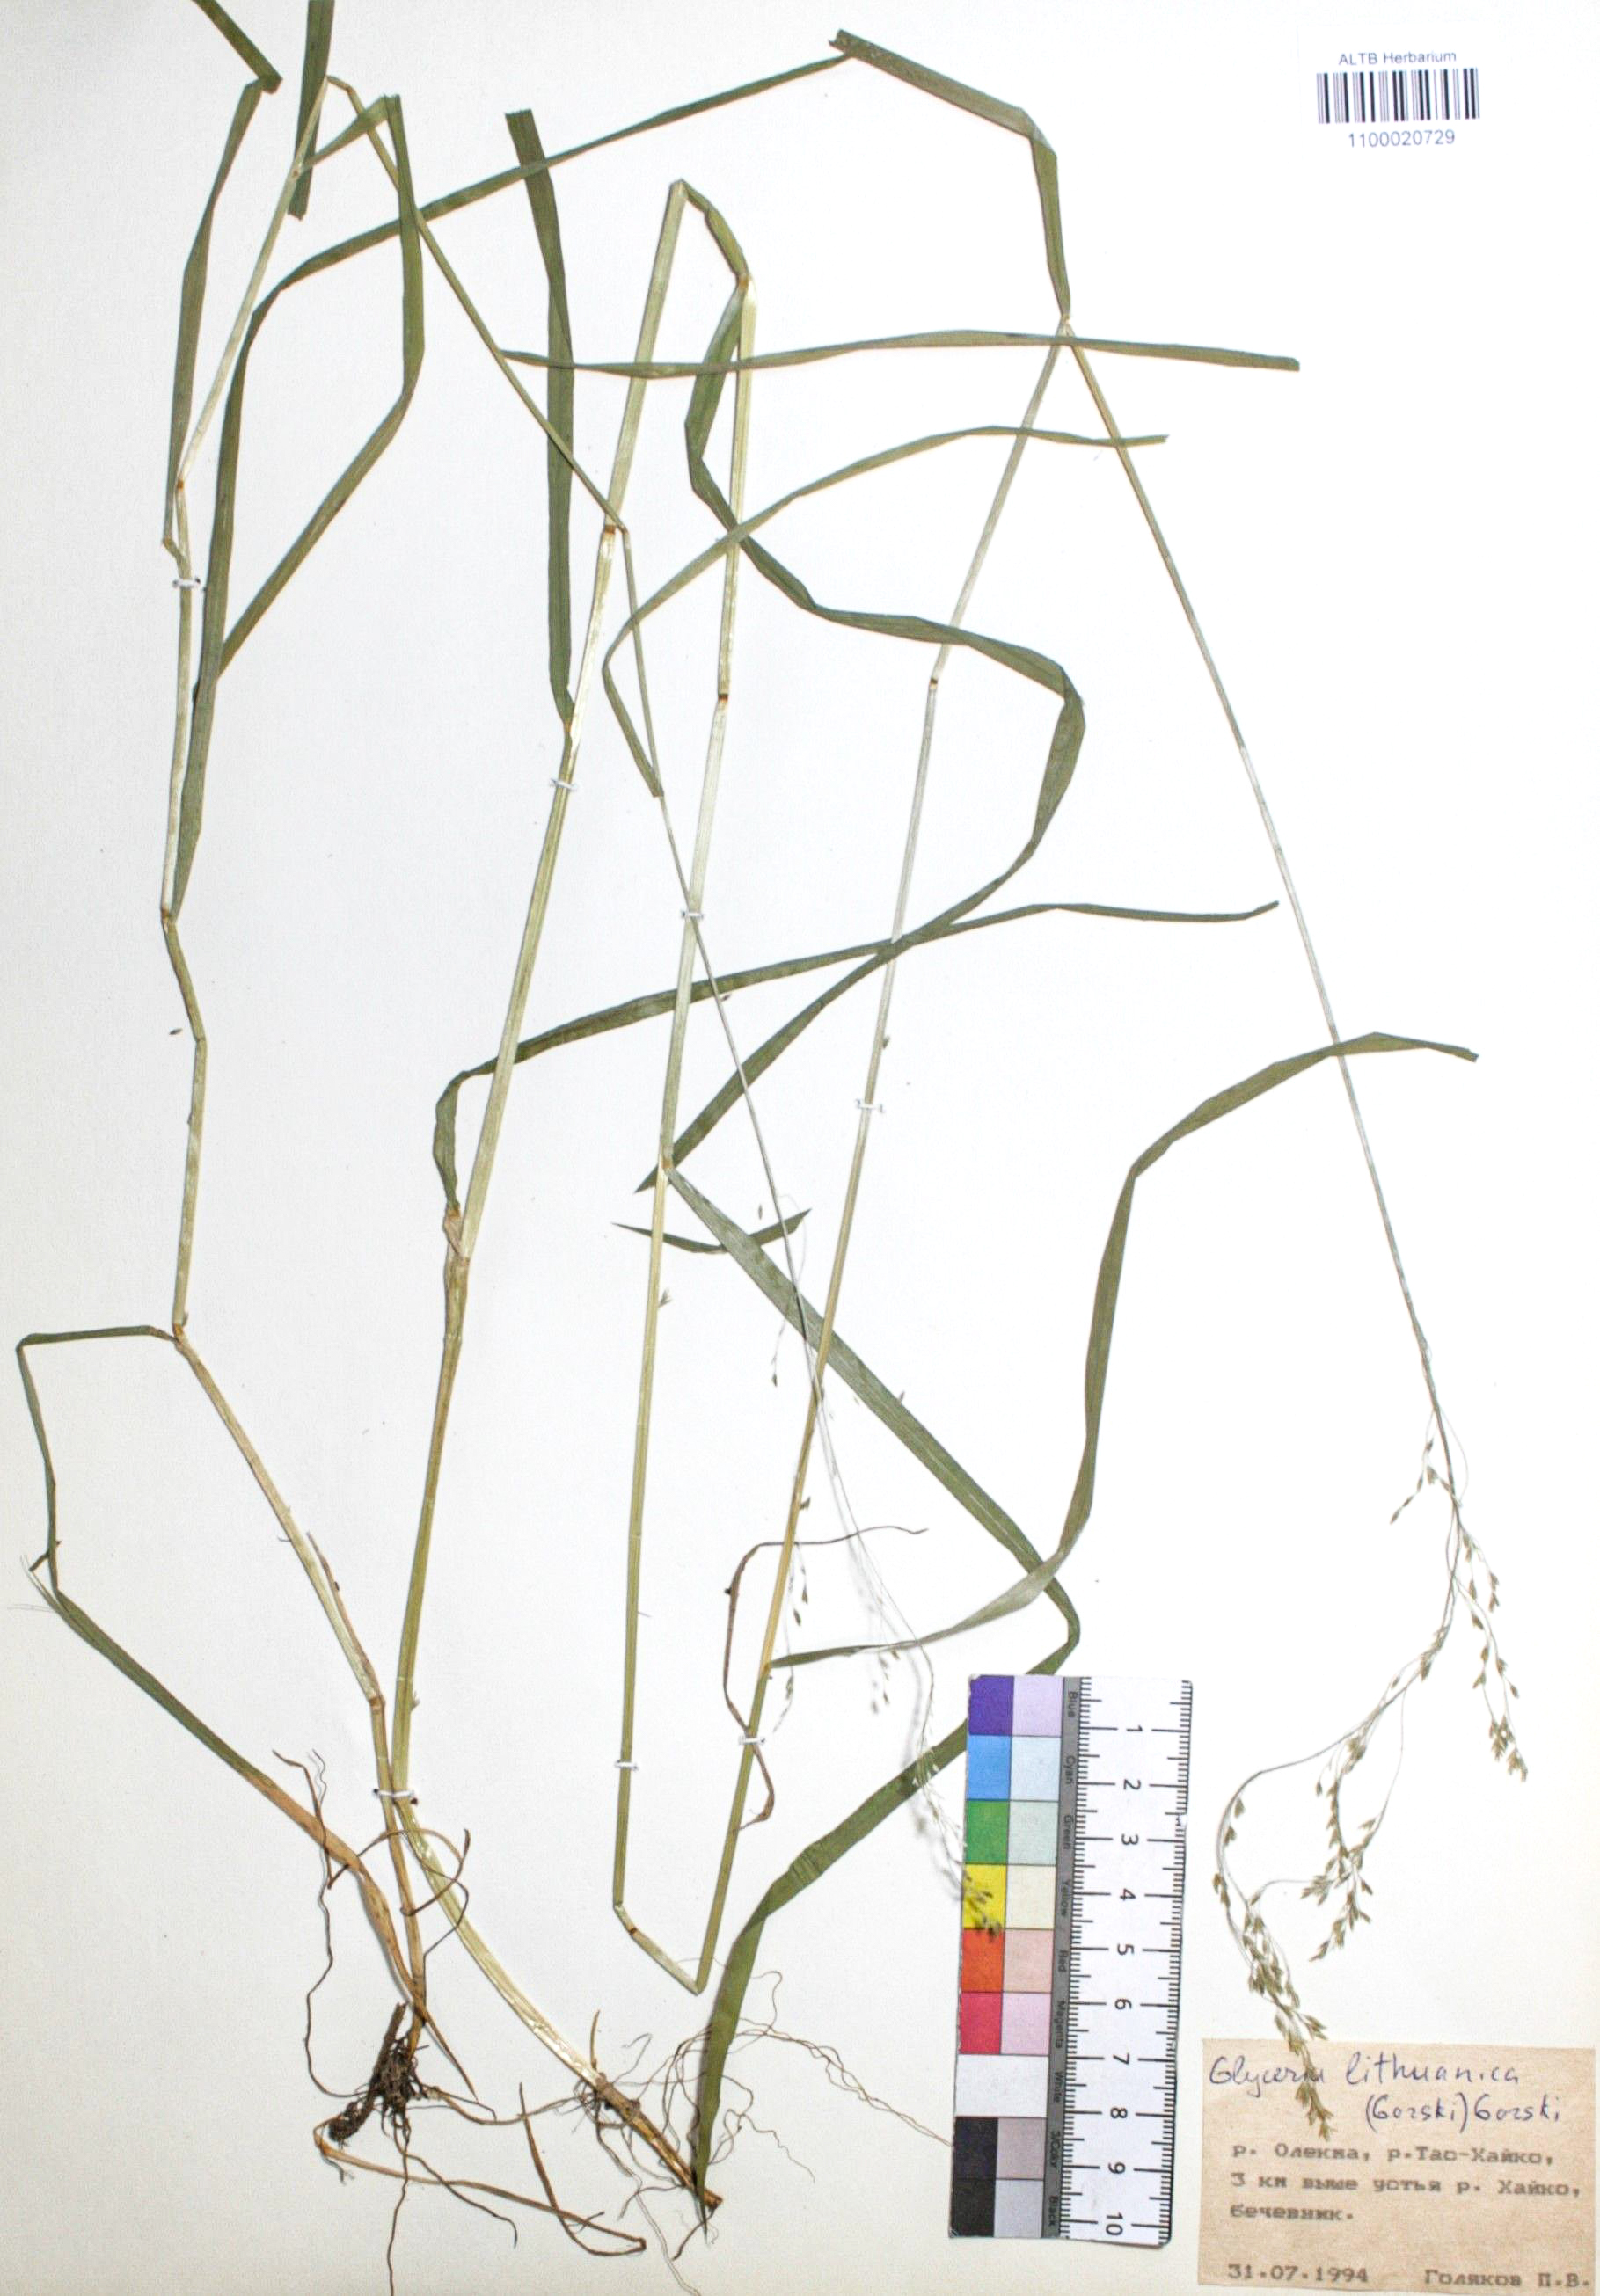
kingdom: Plantae
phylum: Tracheophyta
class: Liliopsida
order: Poales
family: Poaceae
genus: Glyceria
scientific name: Glyceria lithuanica
